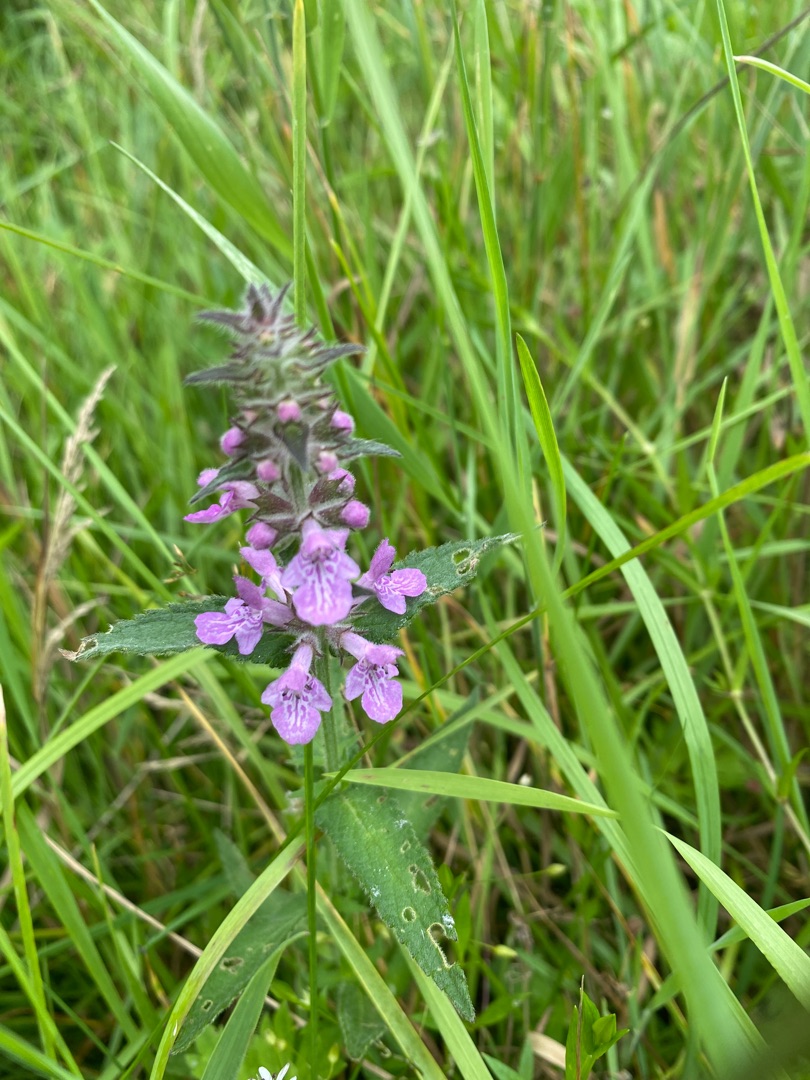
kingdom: Plantae
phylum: Tracheophyta
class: Magnoliopsida
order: Lamiales
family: Lamiaceae
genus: Stachys
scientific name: Stachys palustris
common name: Kær-galtetand
